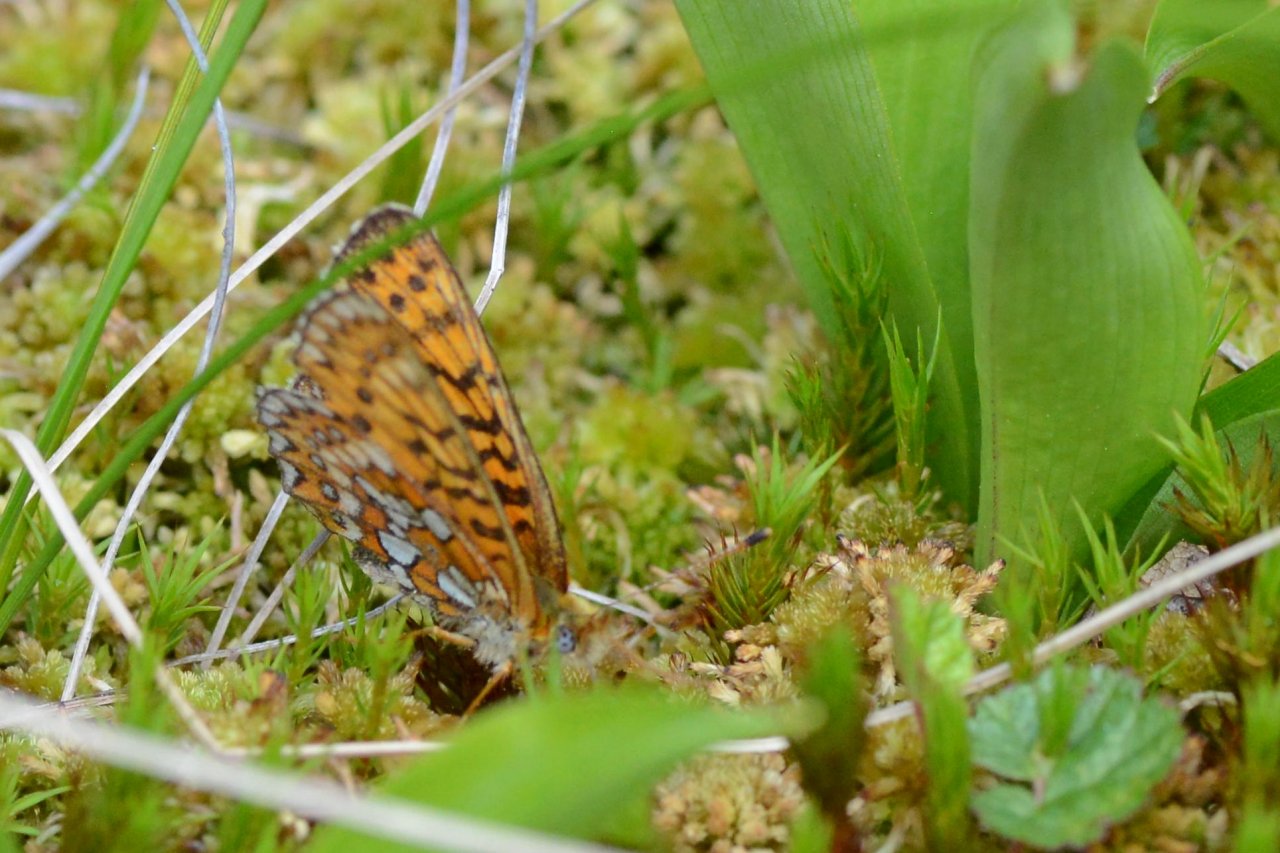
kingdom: Animalia
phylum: Arthropoda
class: Insecta
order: Lepidoptera
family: Nymphalidae
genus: Boloria
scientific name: Boloria eunomia
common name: Bog Fritillary
